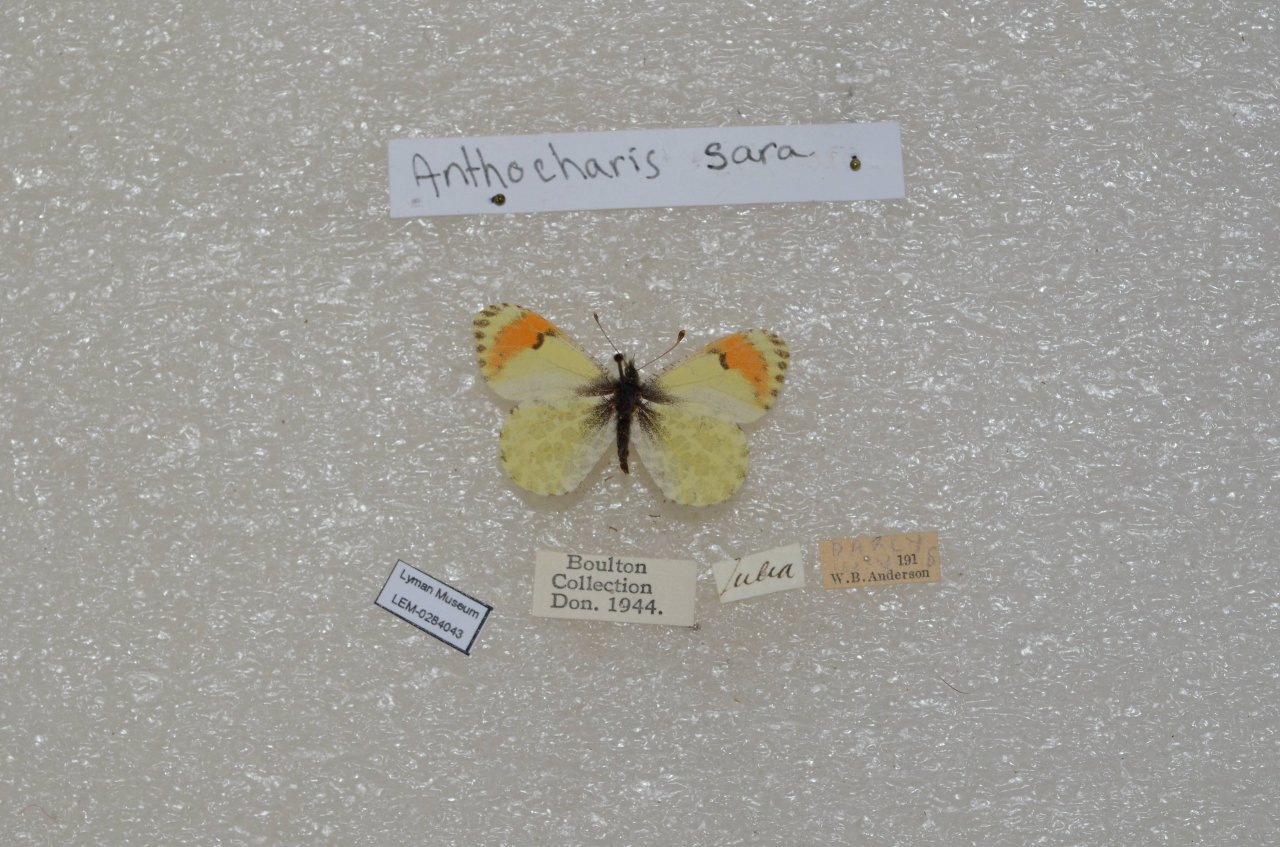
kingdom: Animalia
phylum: Arthropoda
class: Insecta
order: Lepidoptera
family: Pieridae
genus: Anthocharis
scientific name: Anthocharis sara
